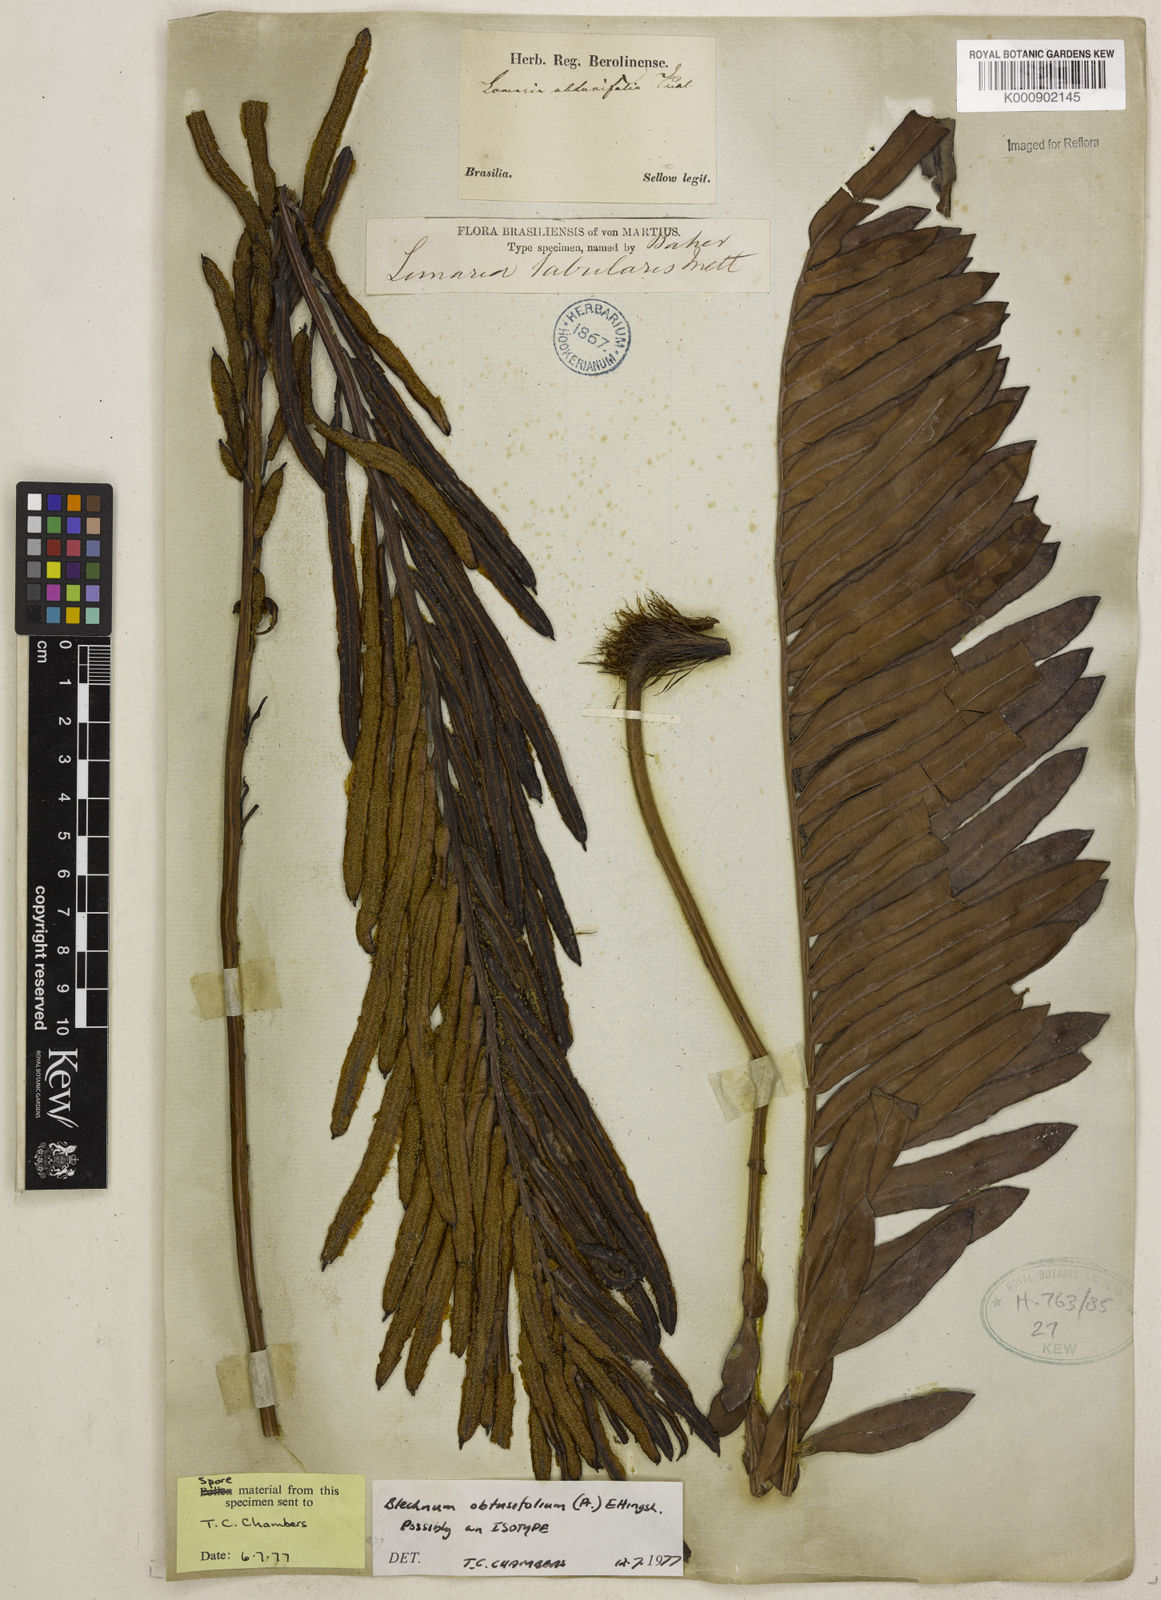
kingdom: Plantae
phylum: Tracheophyta
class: Polypodiopsida
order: Polypodiales
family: Blechnaceae
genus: Lomariocycas
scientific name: Lomariocycas obtusifolia
